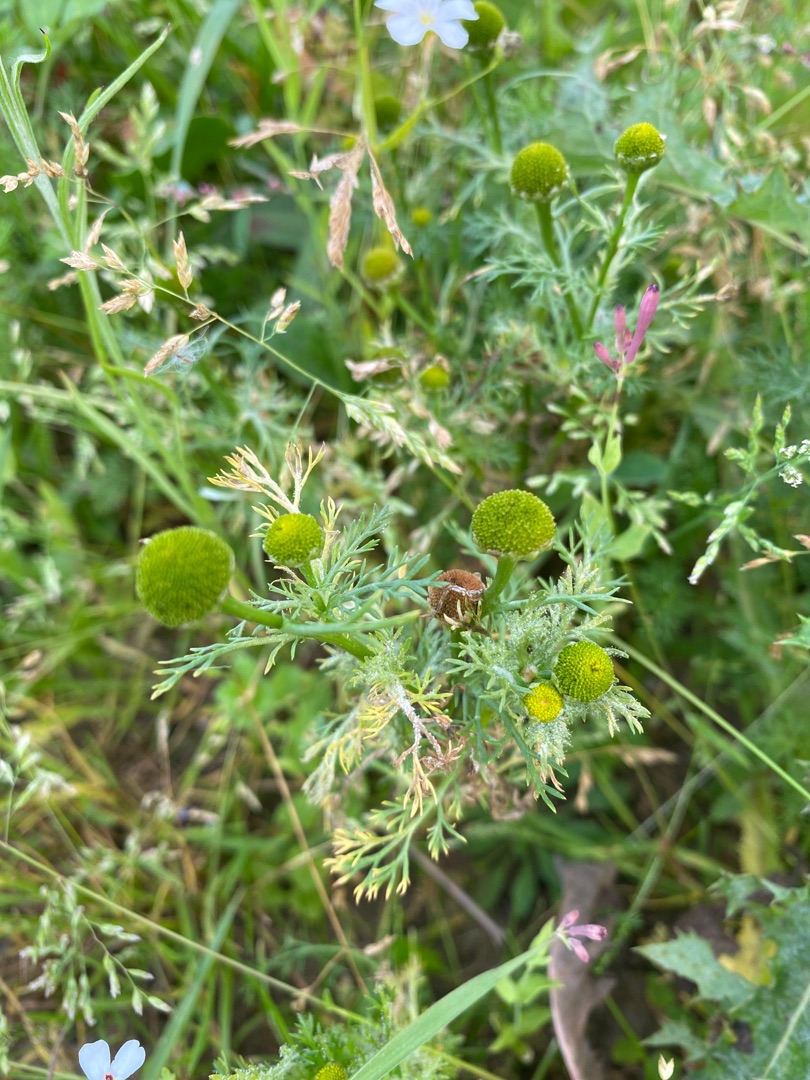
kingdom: Plantae
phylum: Tracheophyta
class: Magnoliopsida
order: Asterales
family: Asteraceae
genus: Matricaria
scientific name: Matricaria discoidea
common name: Skive-kamille
